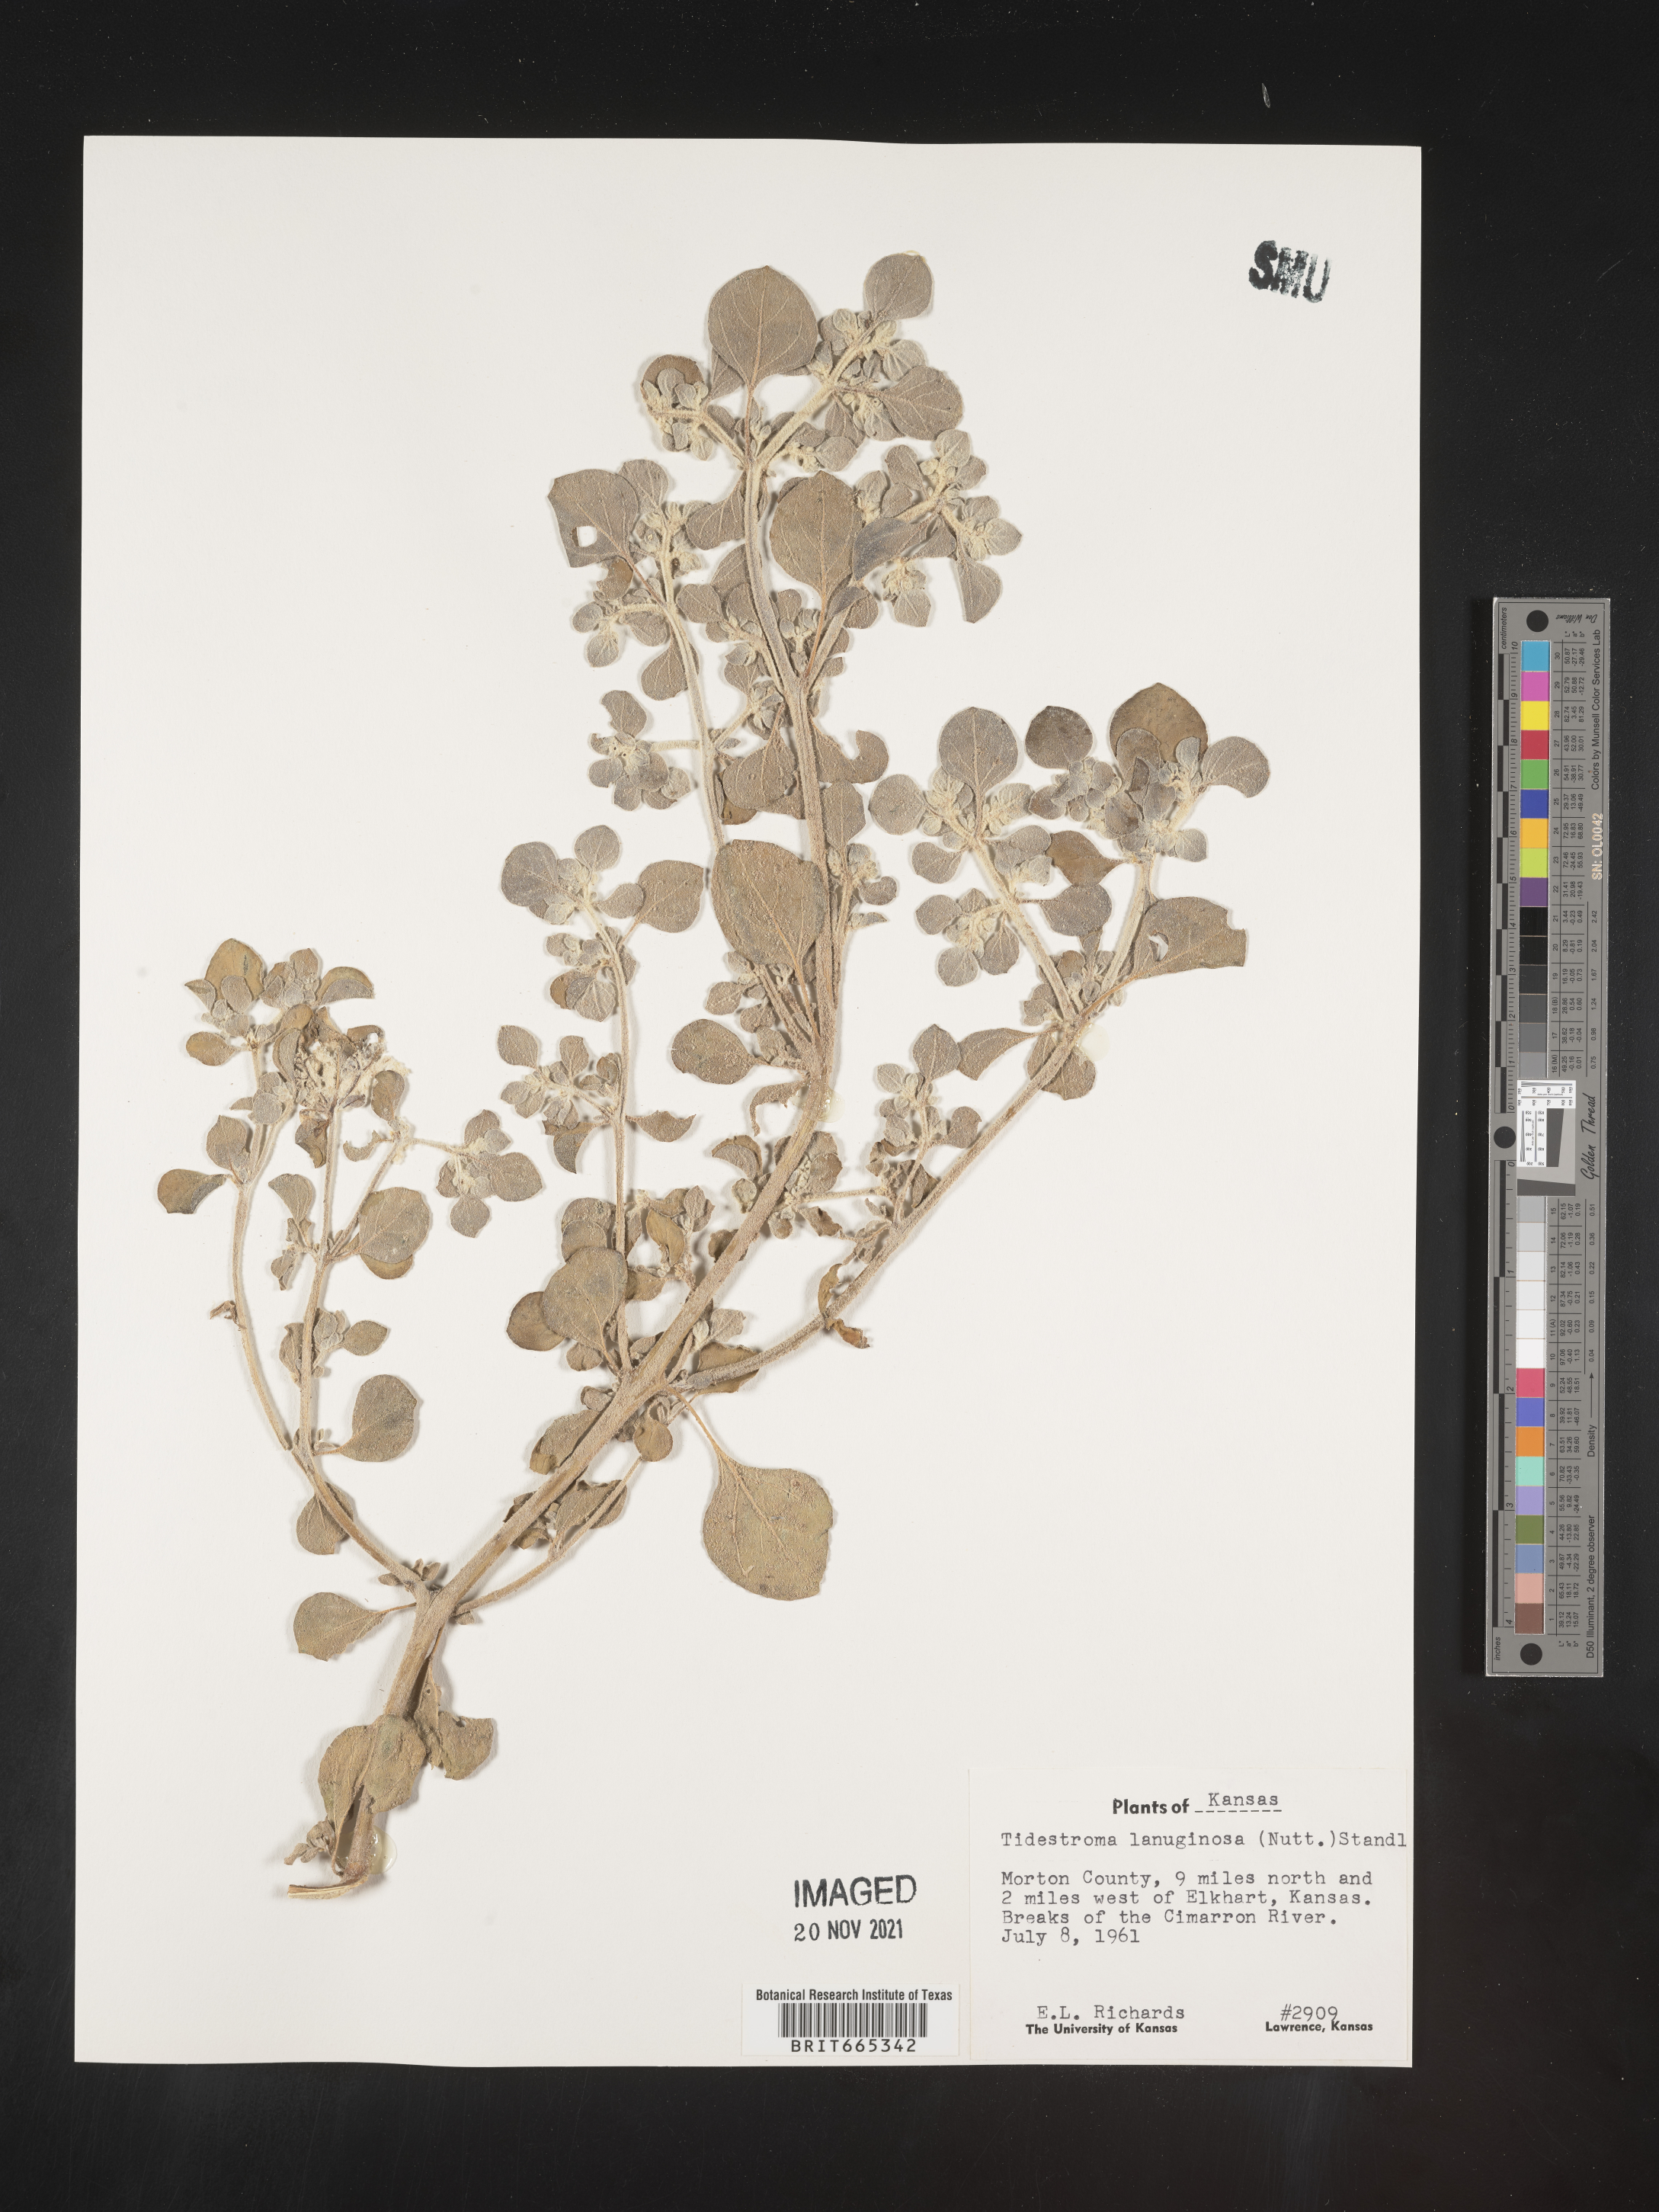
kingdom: Plantae
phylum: Tracheophyta
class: Magnoliopsida
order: Caryophyllales
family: Amaranthaceae
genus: Tidestromia
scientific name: Tidestromia lanuginosa
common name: Woolly tidestromia
